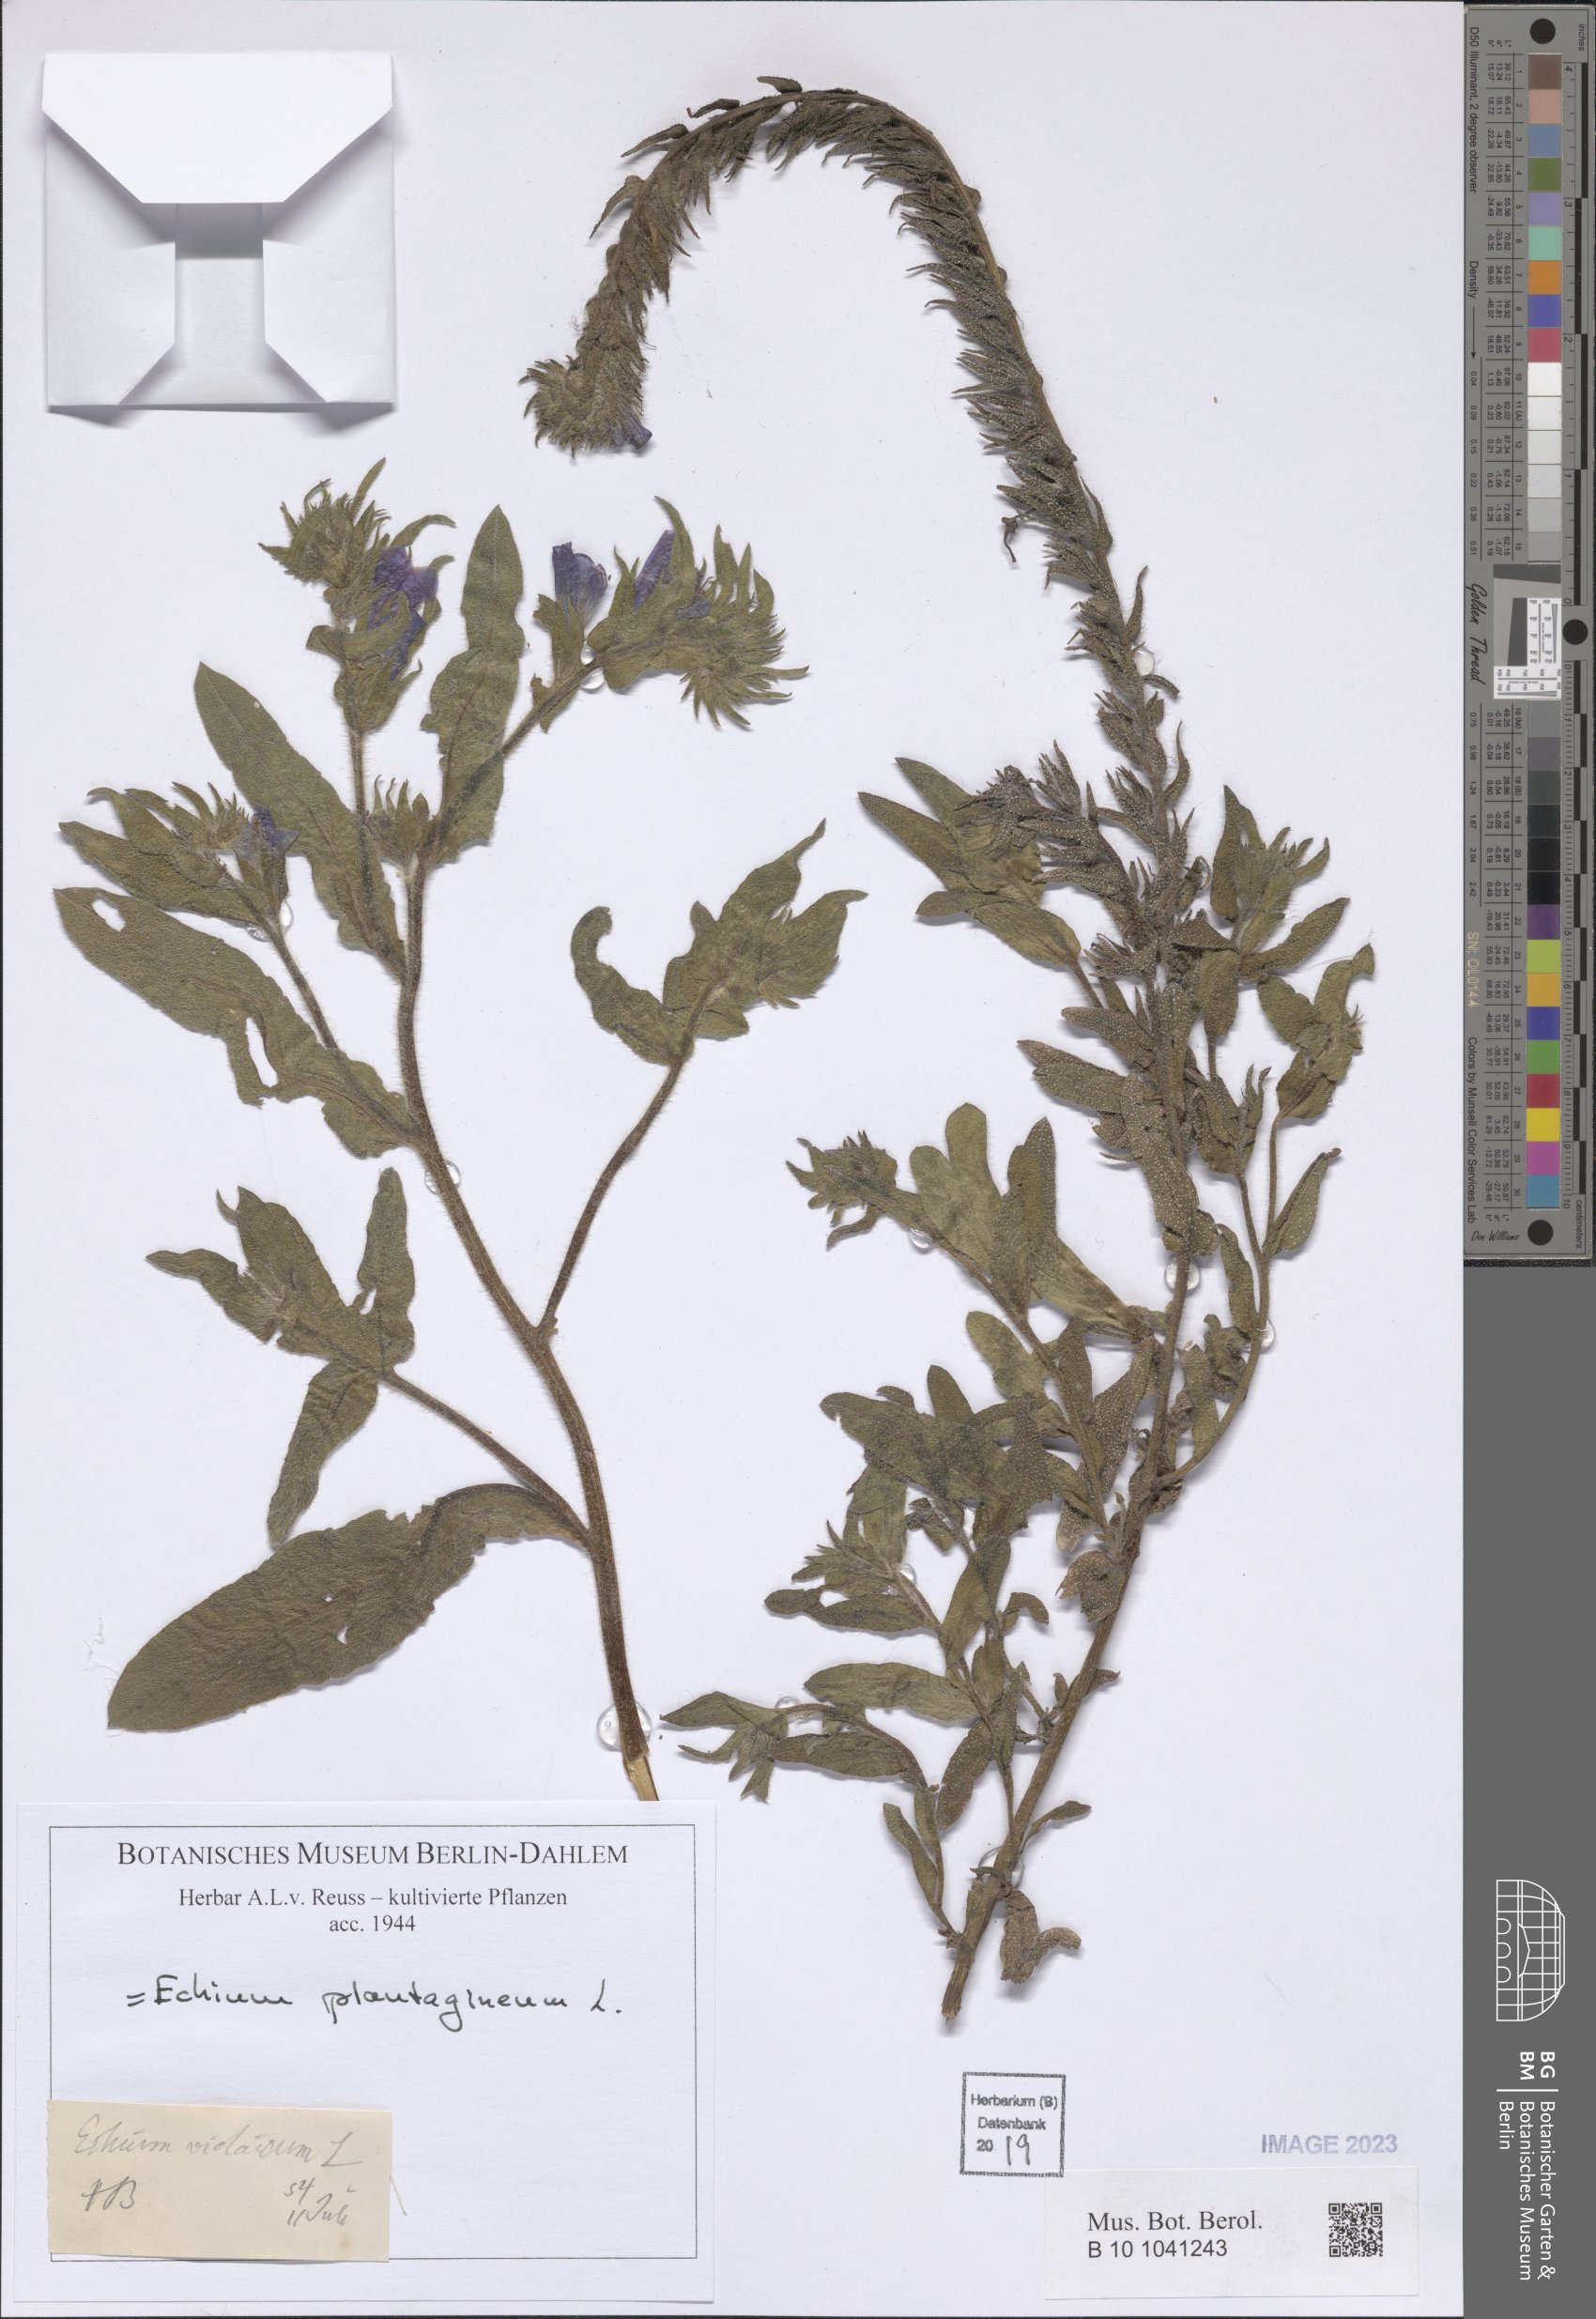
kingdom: Plantae
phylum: Tracheophyta
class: Magnoliopsida
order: Boraginales
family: Boraginaceae
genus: Echium
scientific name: Echium plantagineum
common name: Purple viper's-bugloss
